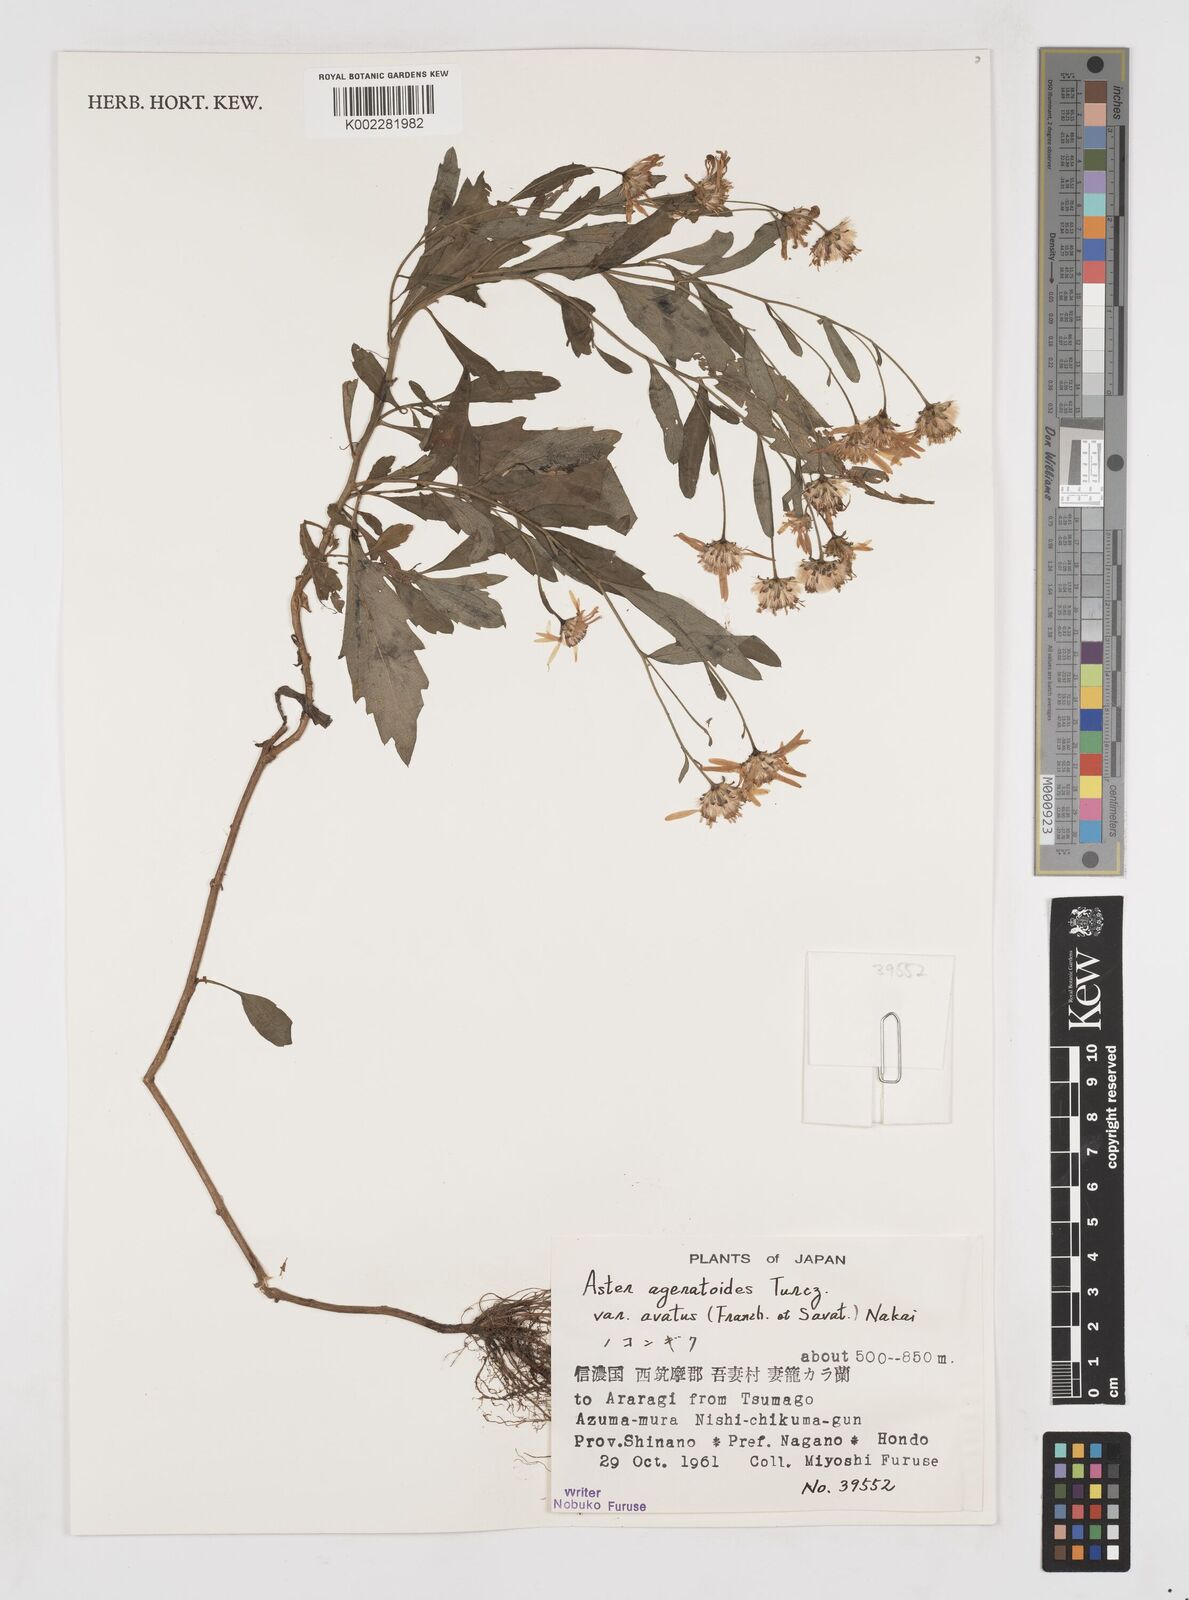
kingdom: Plantae
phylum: Tracheophyta
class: Magnoliopsida
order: Asterales
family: Asteraceae
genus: Aster
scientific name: Aster trinervius
